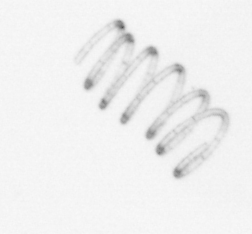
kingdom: Chromista
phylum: Ochrophyta
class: Bacillariophyceae
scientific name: Bacillariophyceae
